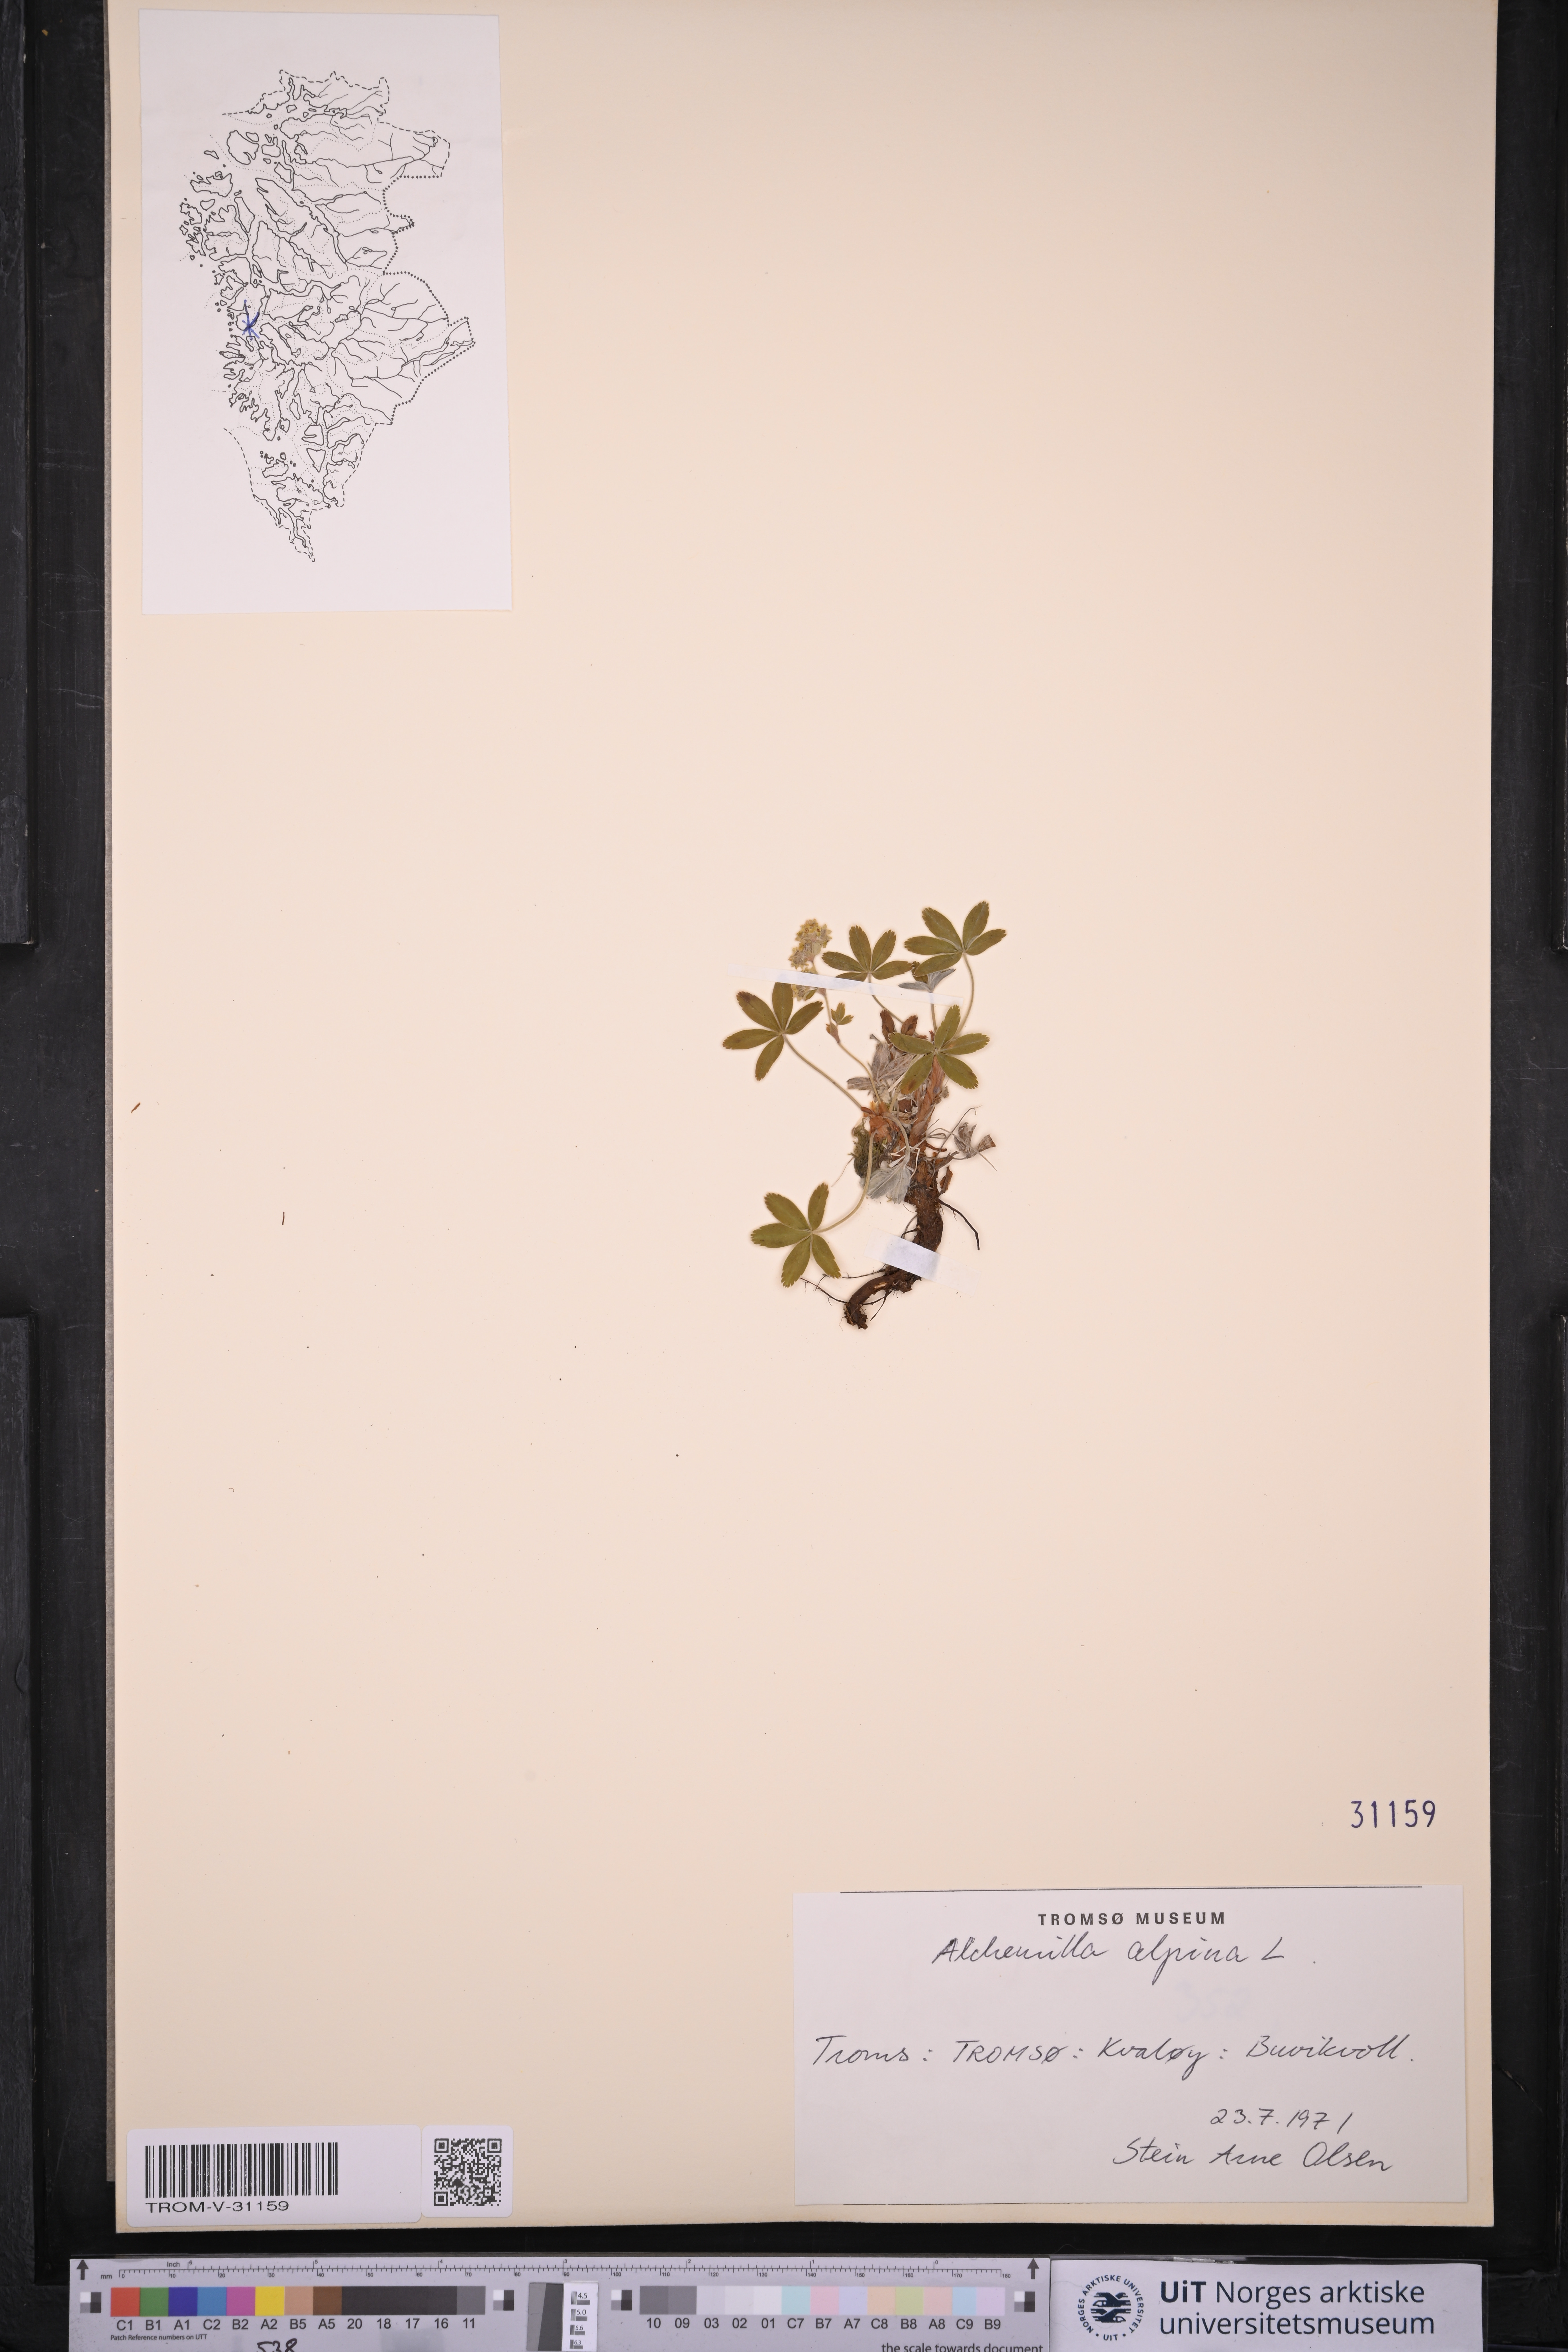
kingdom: Plantae
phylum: Tracheophyta
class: Magnoliopsida
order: Rosales
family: Rosaceae
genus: Alchemilla
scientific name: Alchemilla alpina
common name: Alpine lady's-mantle
